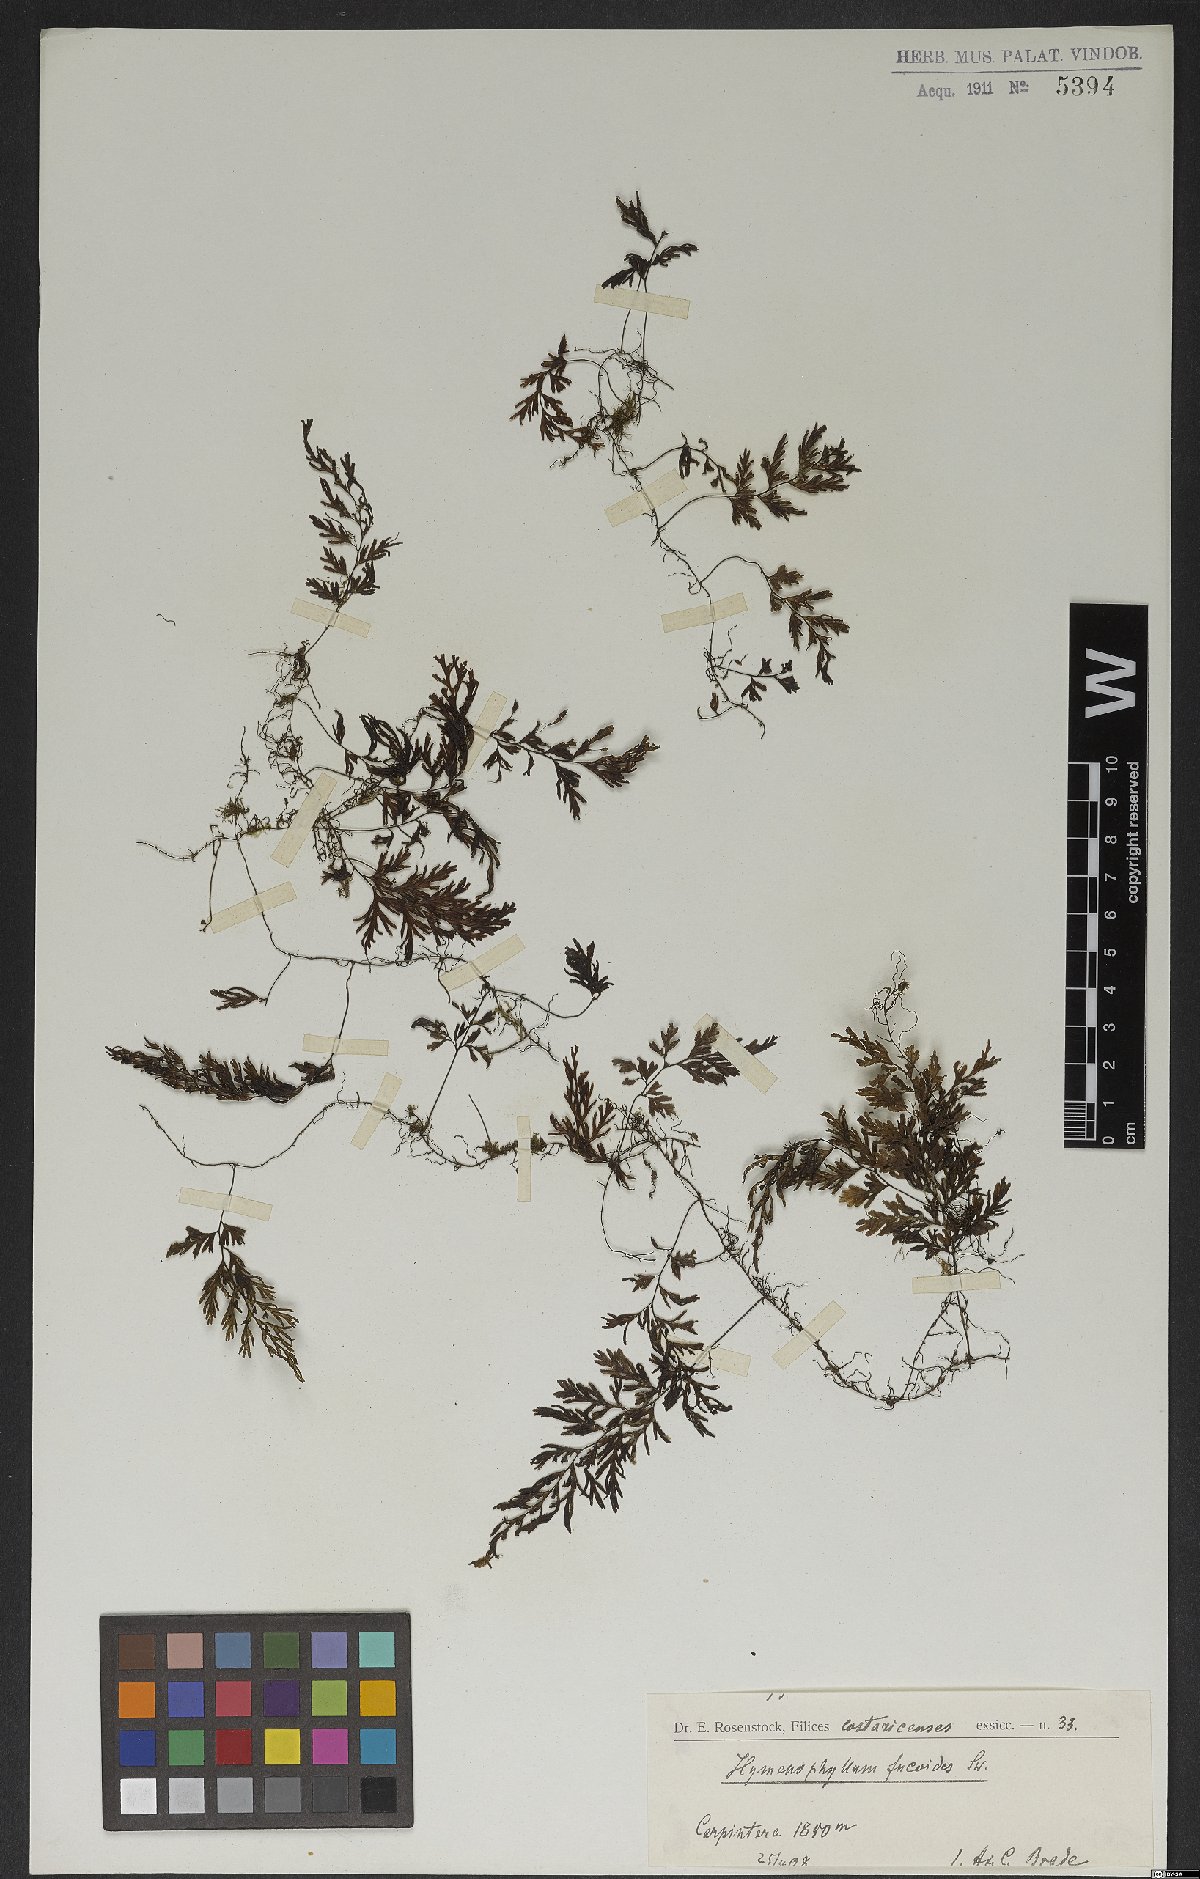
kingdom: Plantae
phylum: Tracheophyta
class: Polypodiopsida
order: Hymenophyllales
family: Hymenophyllaceae
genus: Hymenophyllum
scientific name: Hymenophyllum fucoides
